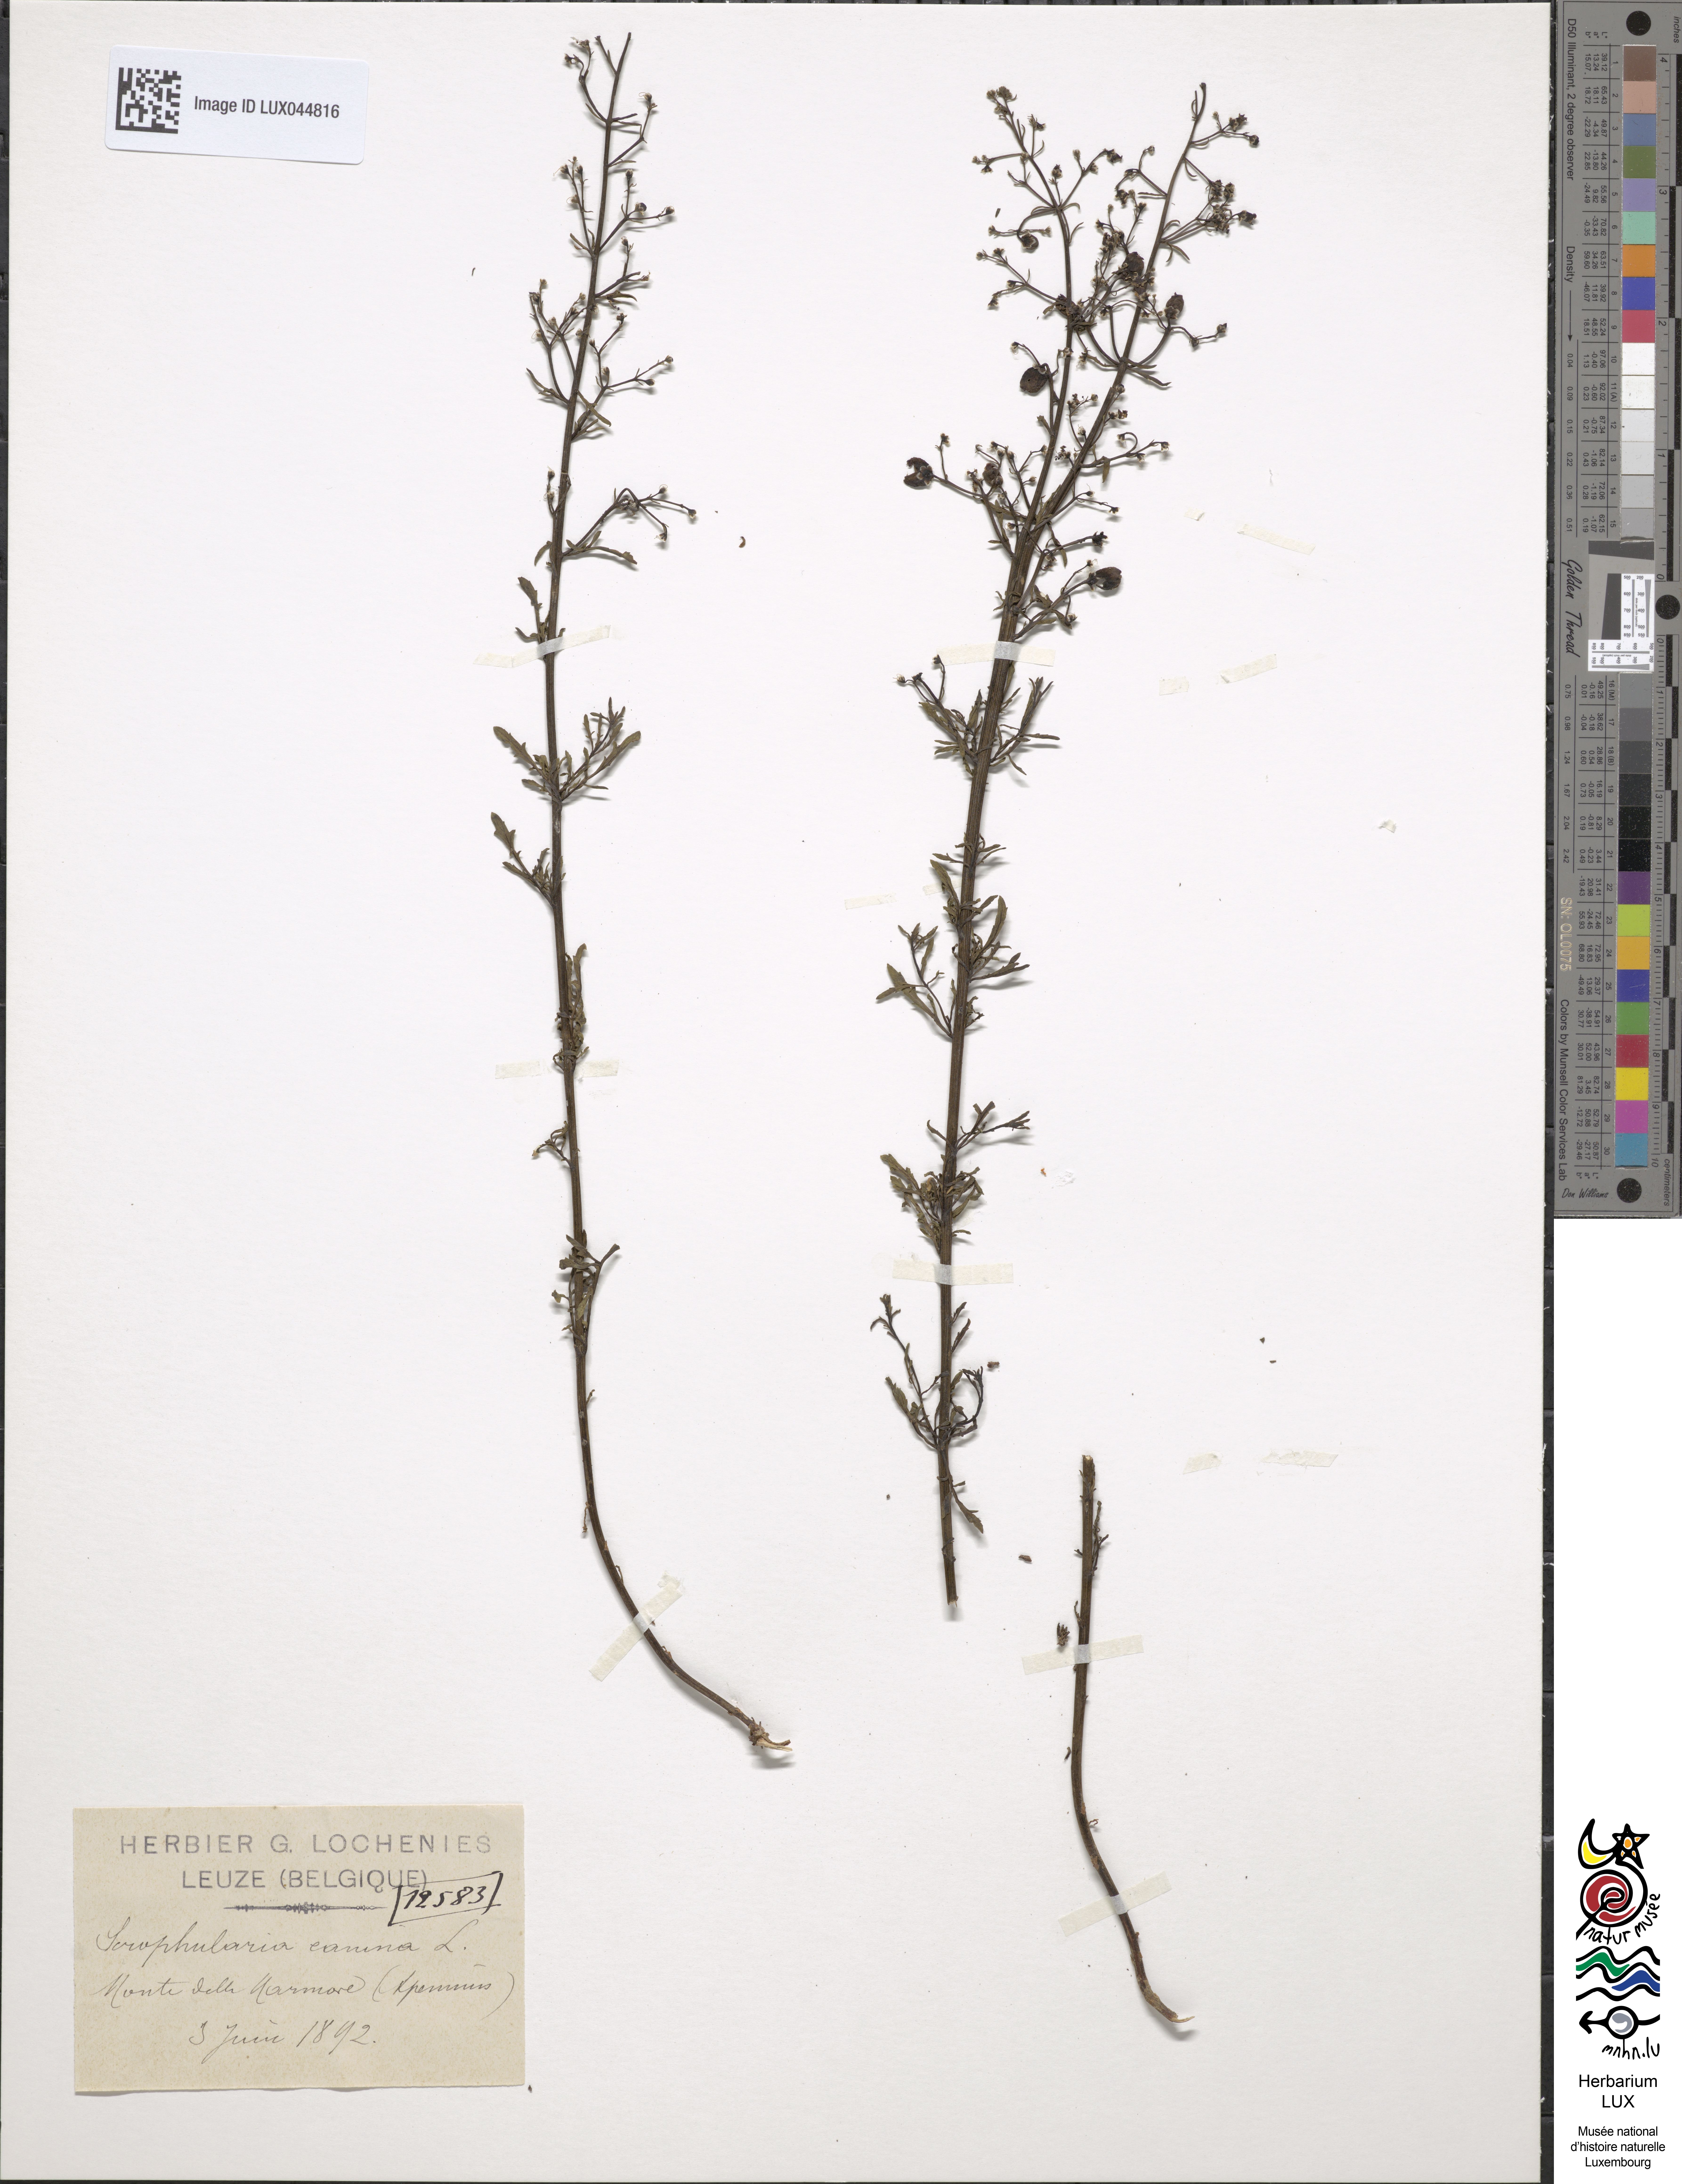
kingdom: Plantae
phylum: Tracheophyta
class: Magnoliopsida
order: Lamiales
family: Scrophulariaceae
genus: Scrophularia
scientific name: Scrophularia canina
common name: French figwort
